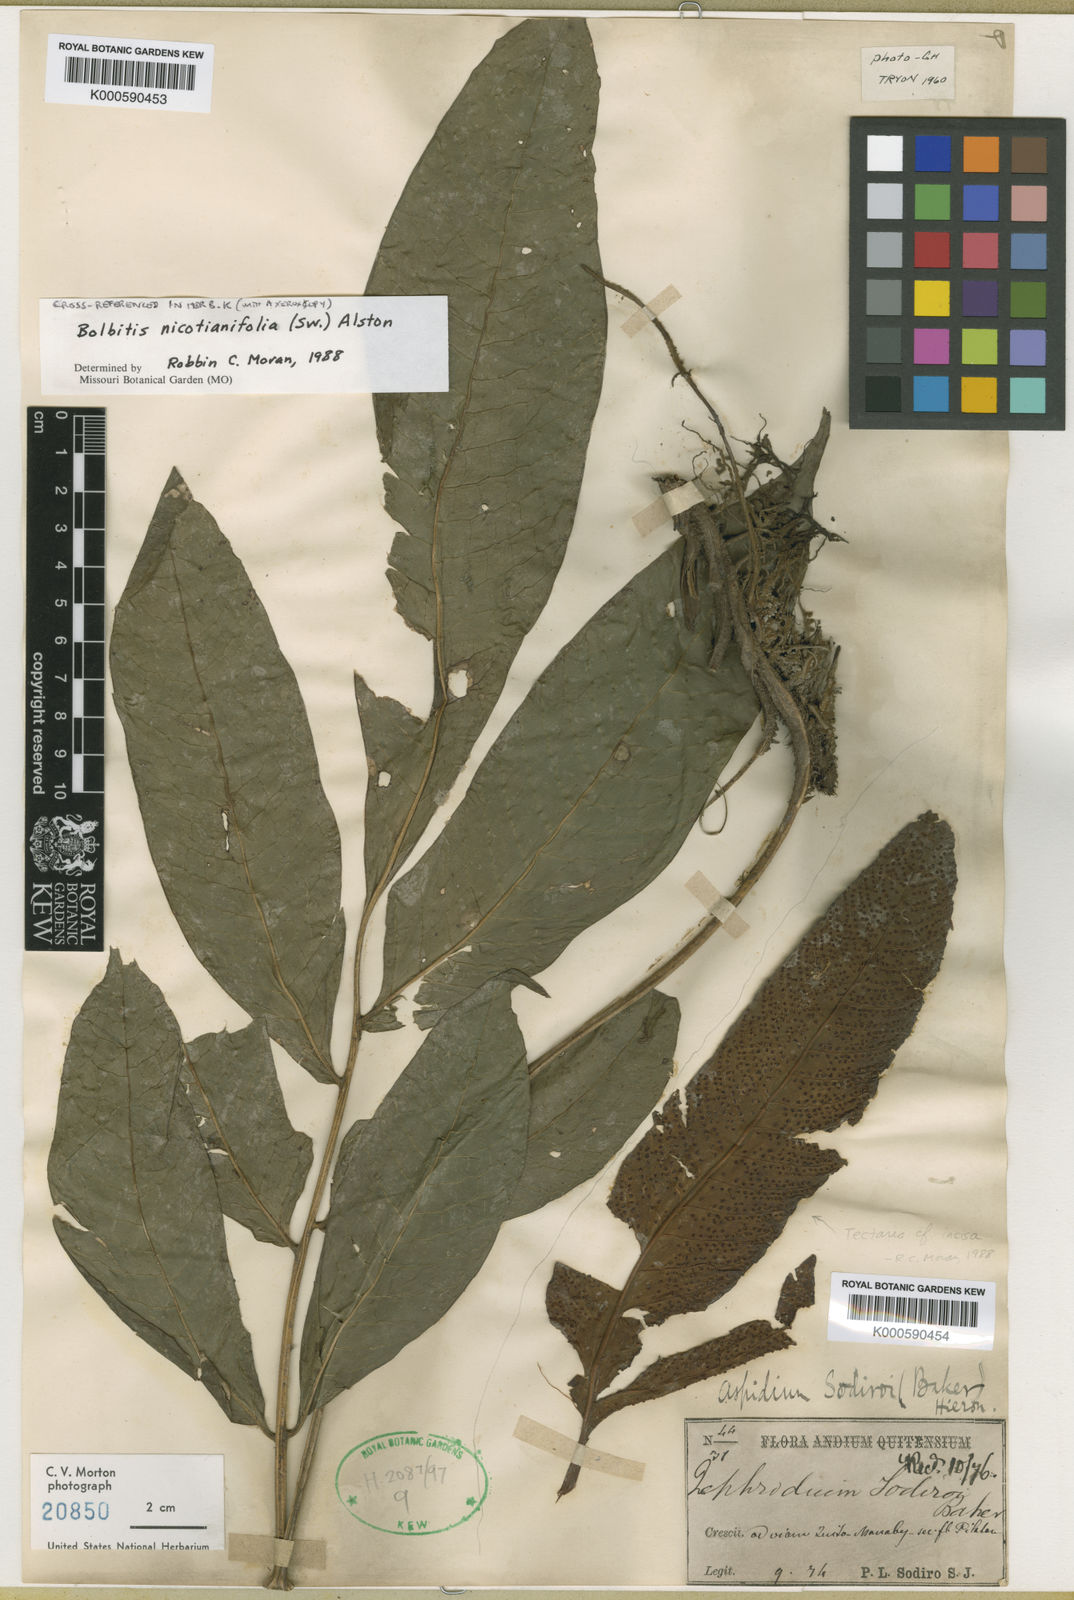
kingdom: Plantae
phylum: Tracheophyta
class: Polypodiopsida
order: Polypodiales
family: Tectariaceae
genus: Tectaria
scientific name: Tectaria incisa
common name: Incised halberd fern
